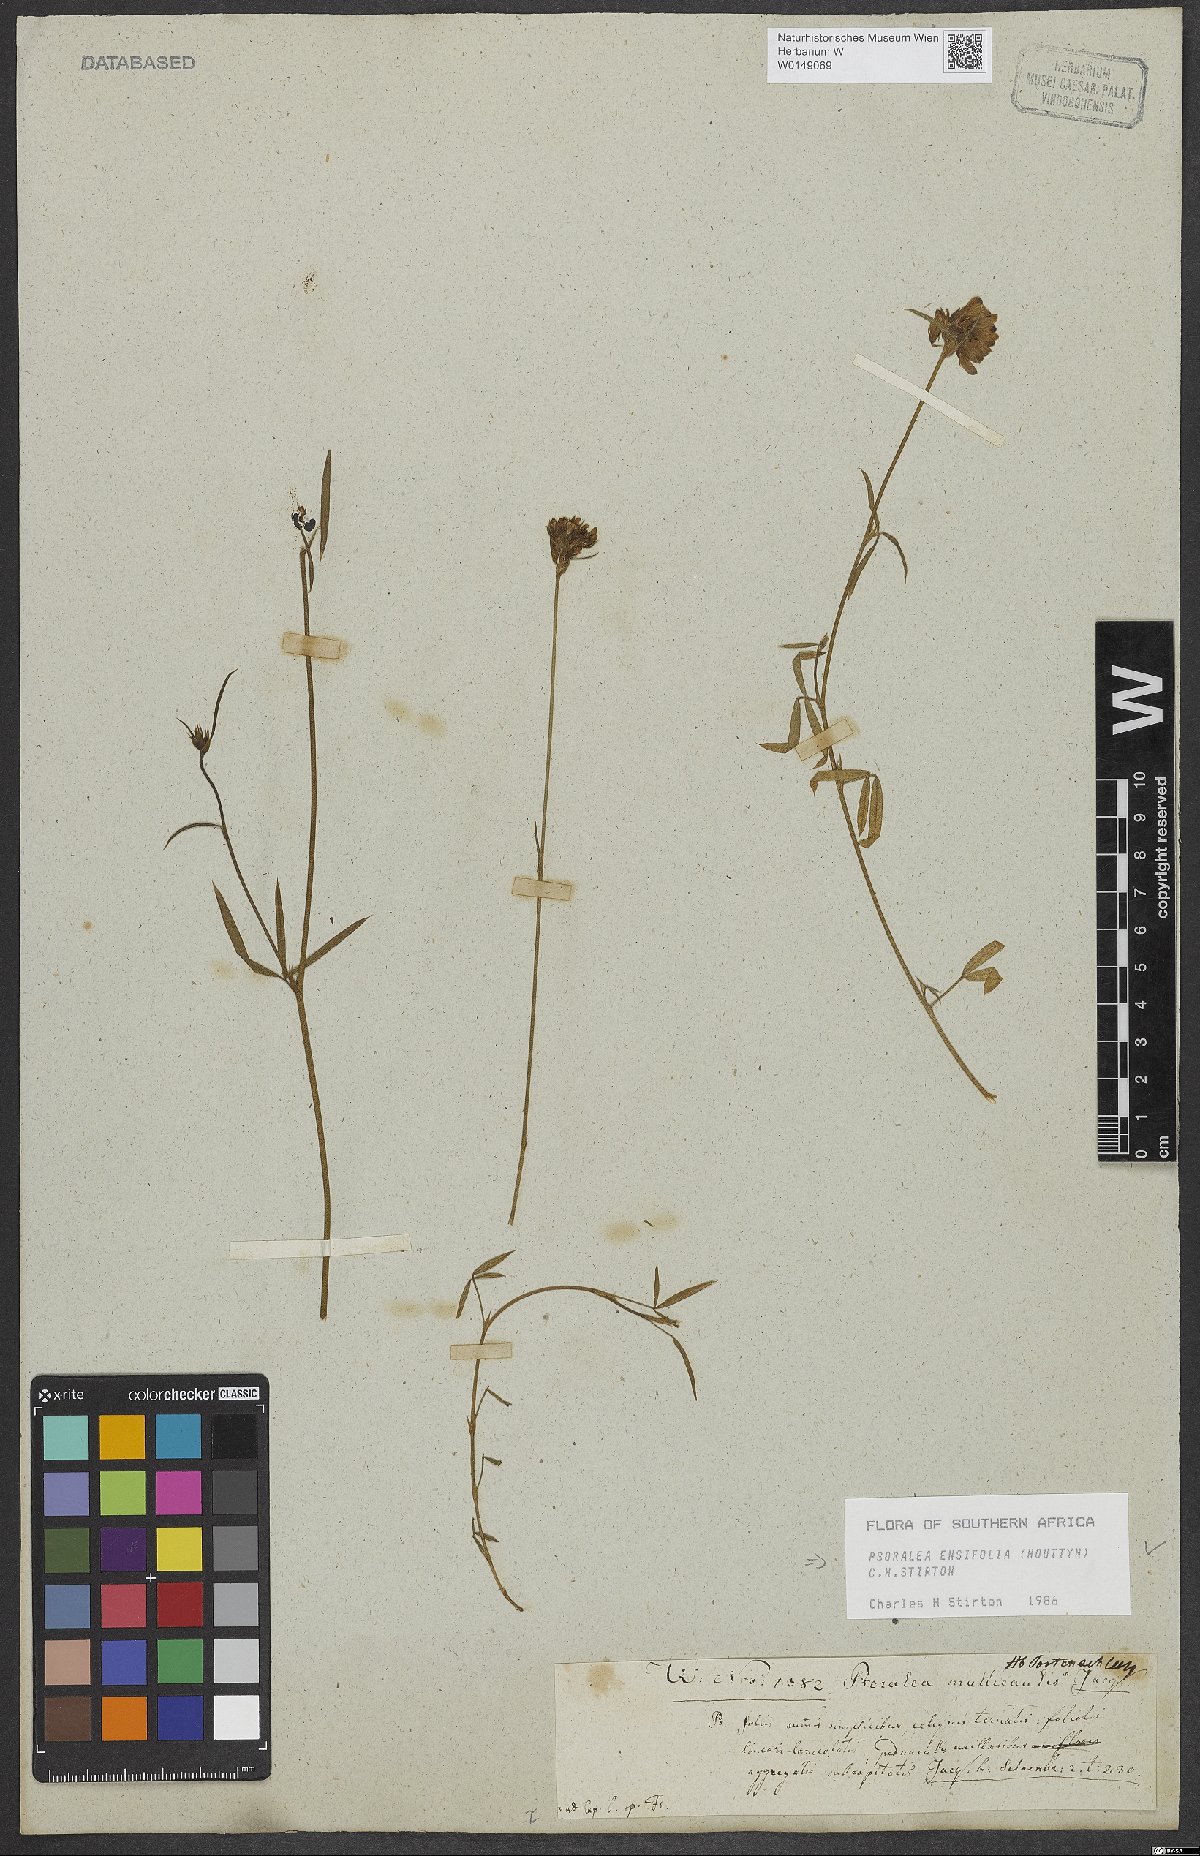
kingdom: Plantae
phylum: Tracheophyta
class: Magnoliopsida
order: Fabales
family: Fabaceae
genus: Psoralea
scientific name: Psoralea ensifolia
